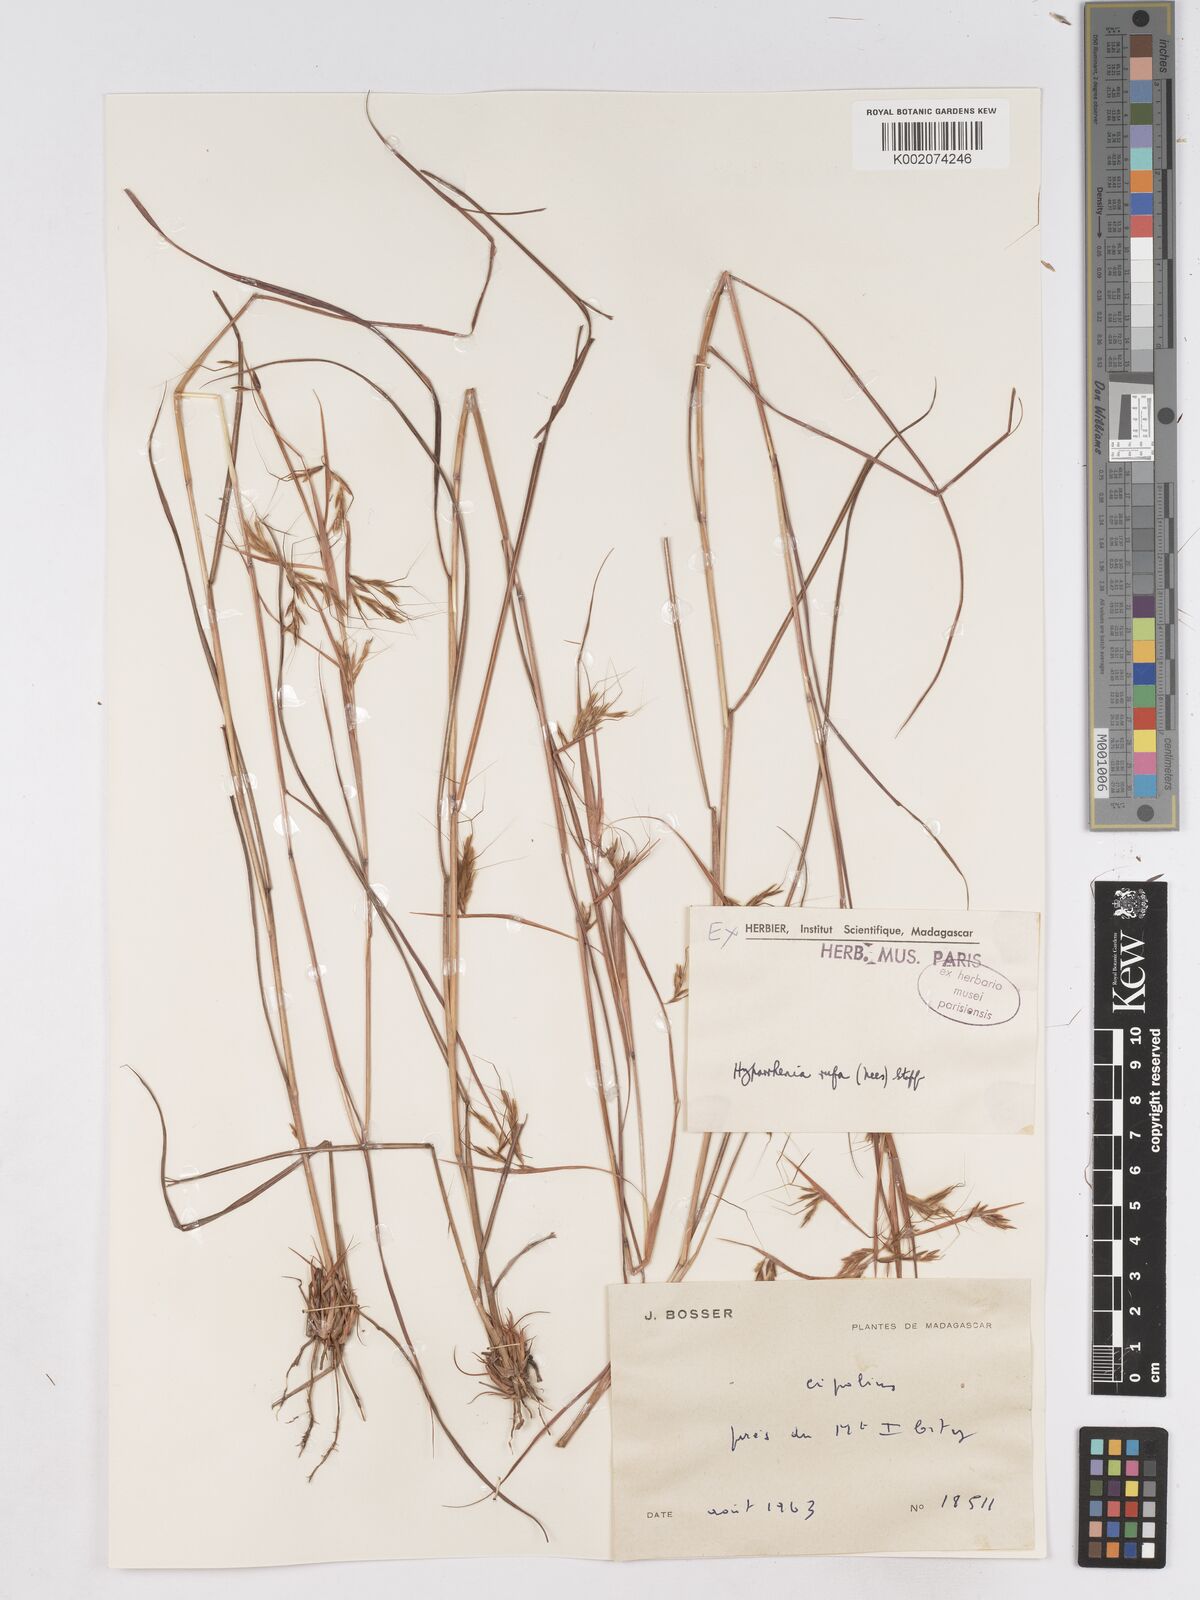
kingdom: Plantae
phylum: Tracheophyta
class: Liliopsida
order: Poales
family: Poaceae
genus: Hyparrhenia
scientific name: Hyparrhenia rufa
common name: Jaraguagrass
